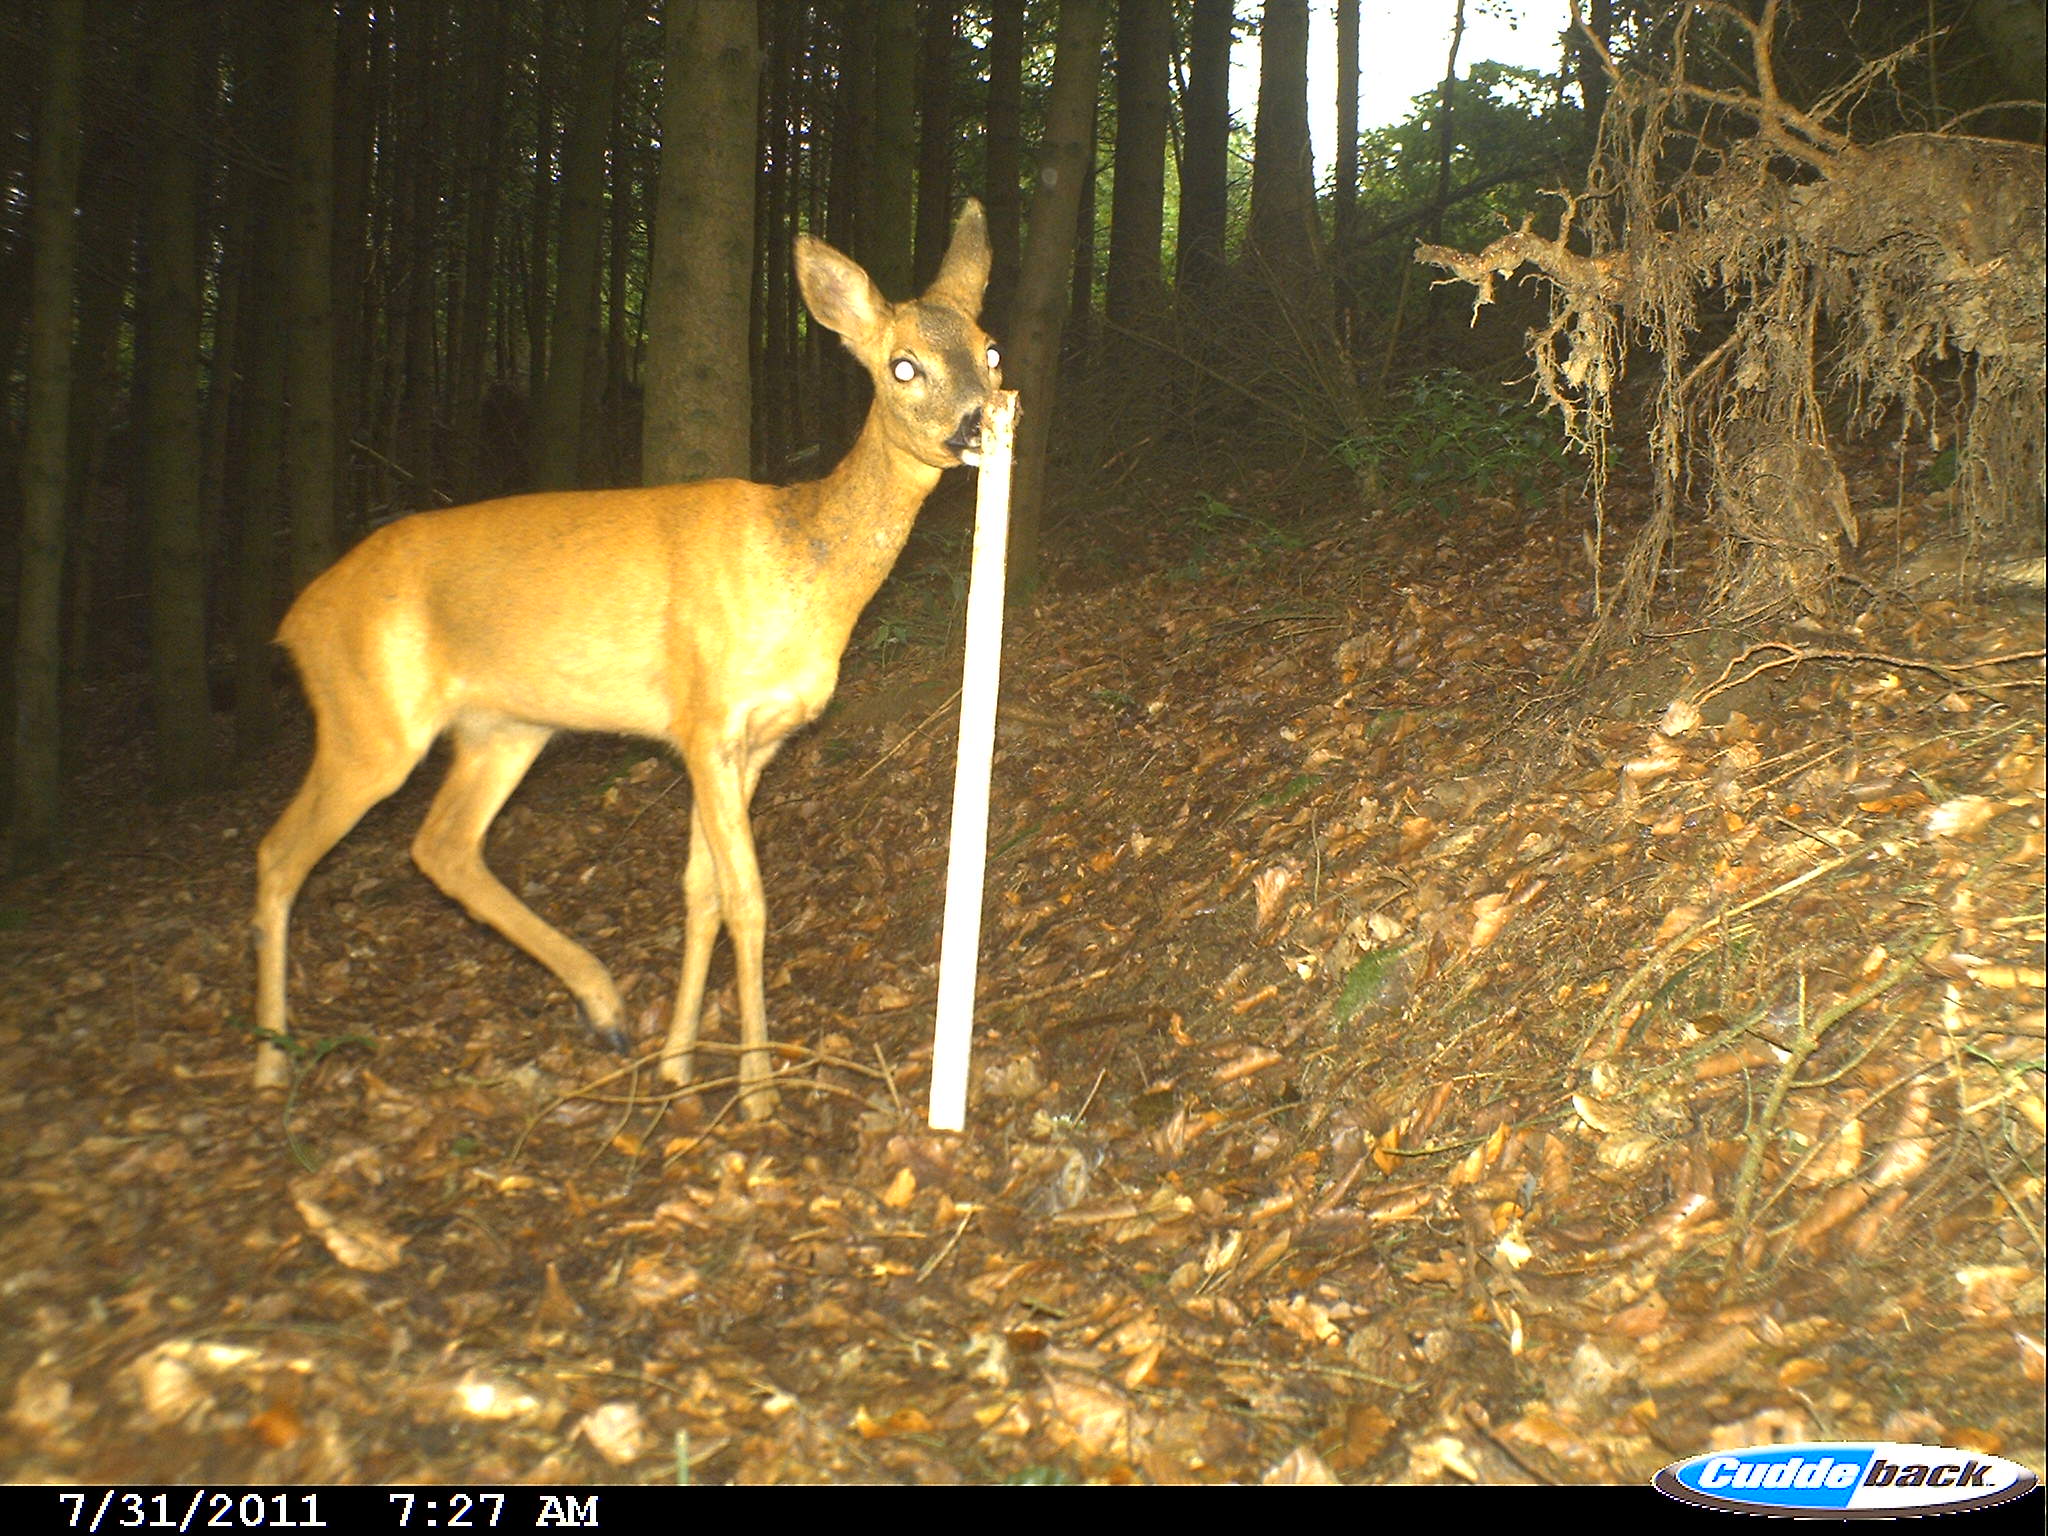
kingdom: Animalia
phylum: Chordata
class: Mammalia
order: Artiodactyla
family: Cervidae
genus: Capreolus
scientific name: Capreolus capreolus
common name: Western roe deer
